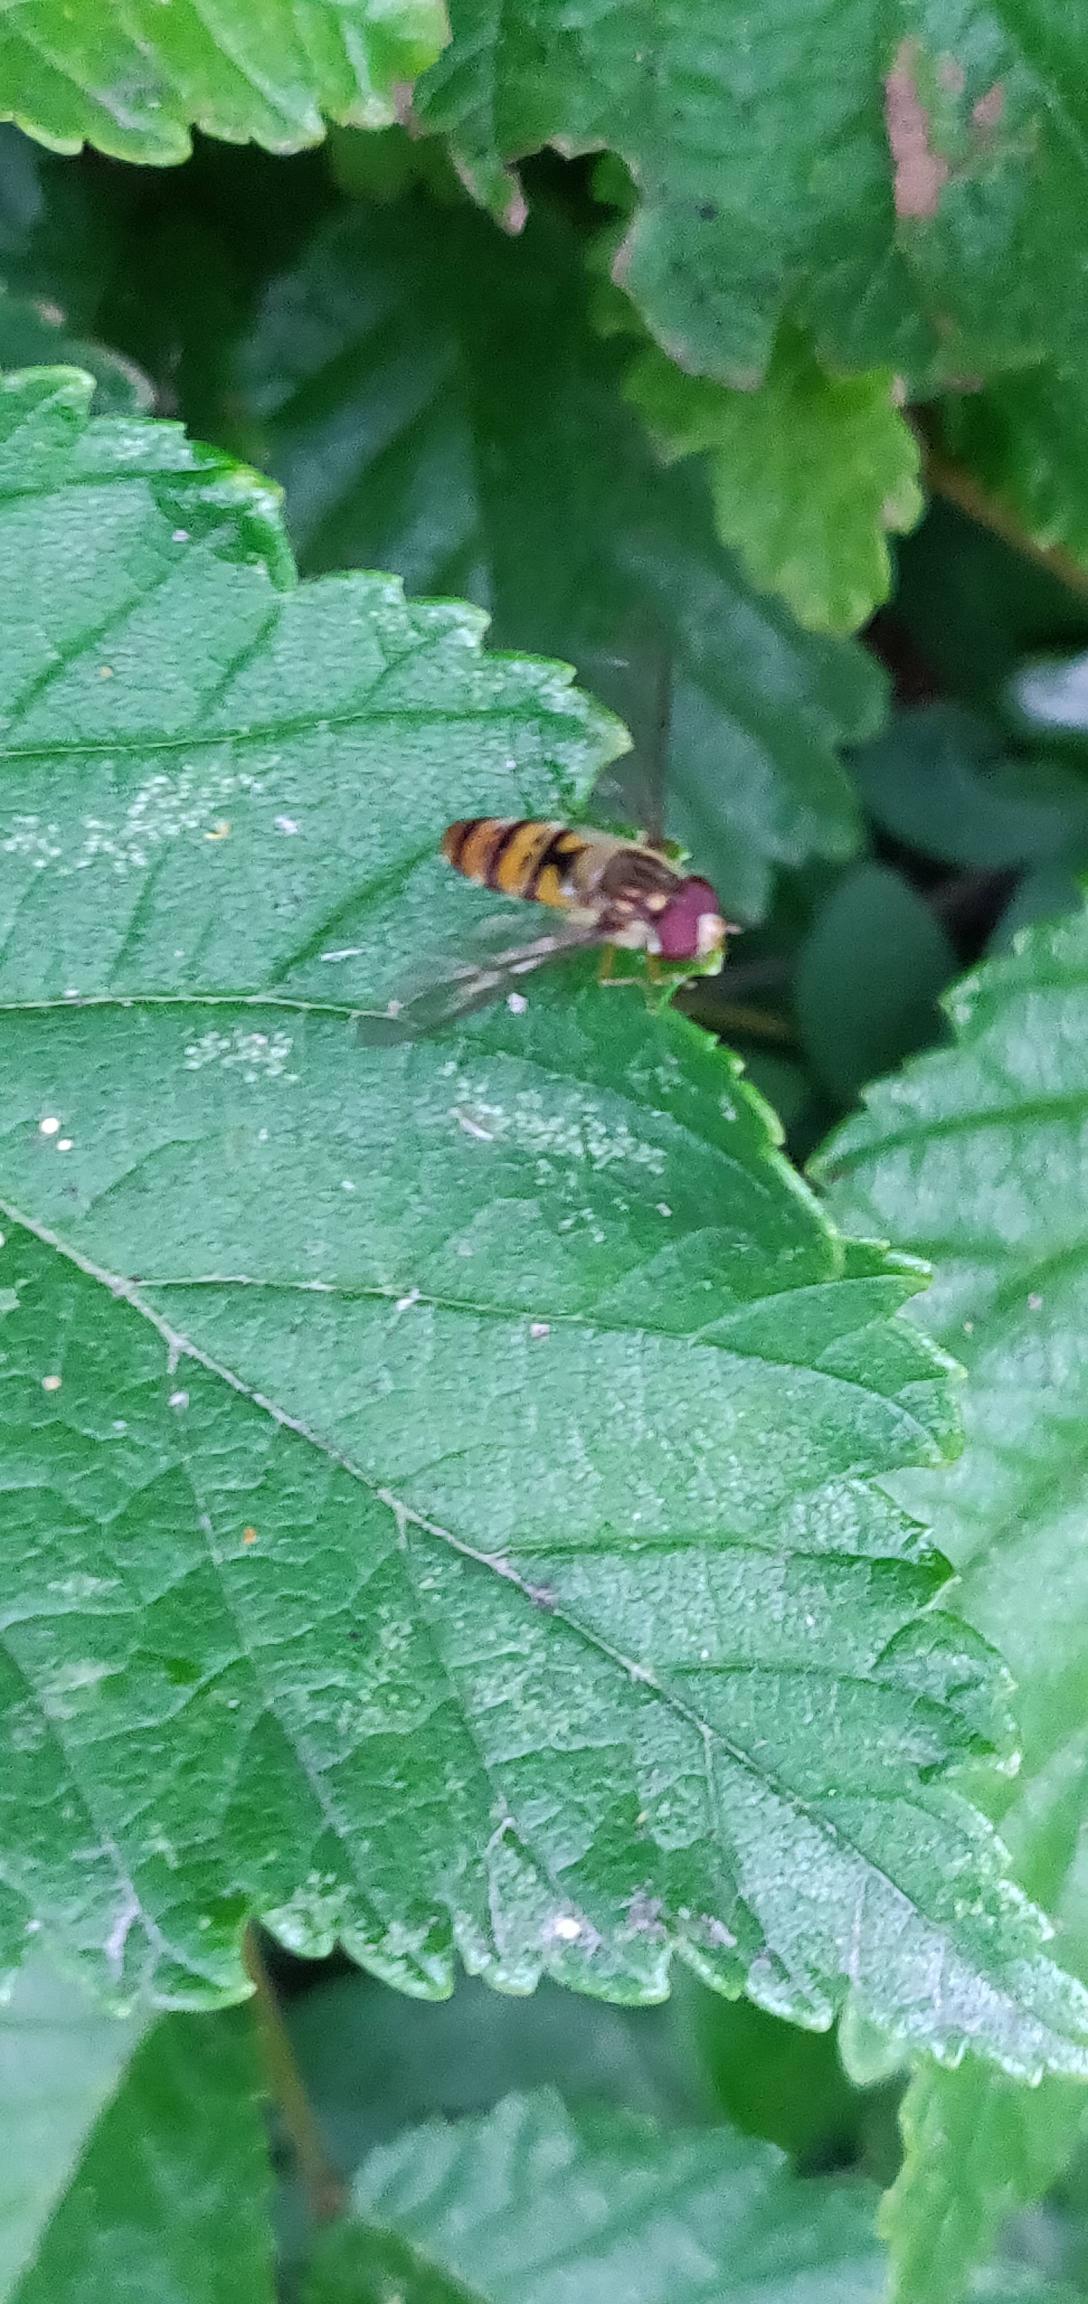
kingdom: Animalia
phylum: Arthropoda
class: Insecta
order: Diptera
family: Syrphidae
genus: Episyrphus
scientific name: Episyrphus balteatus
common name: Dobbeltbåndet svirreflue
